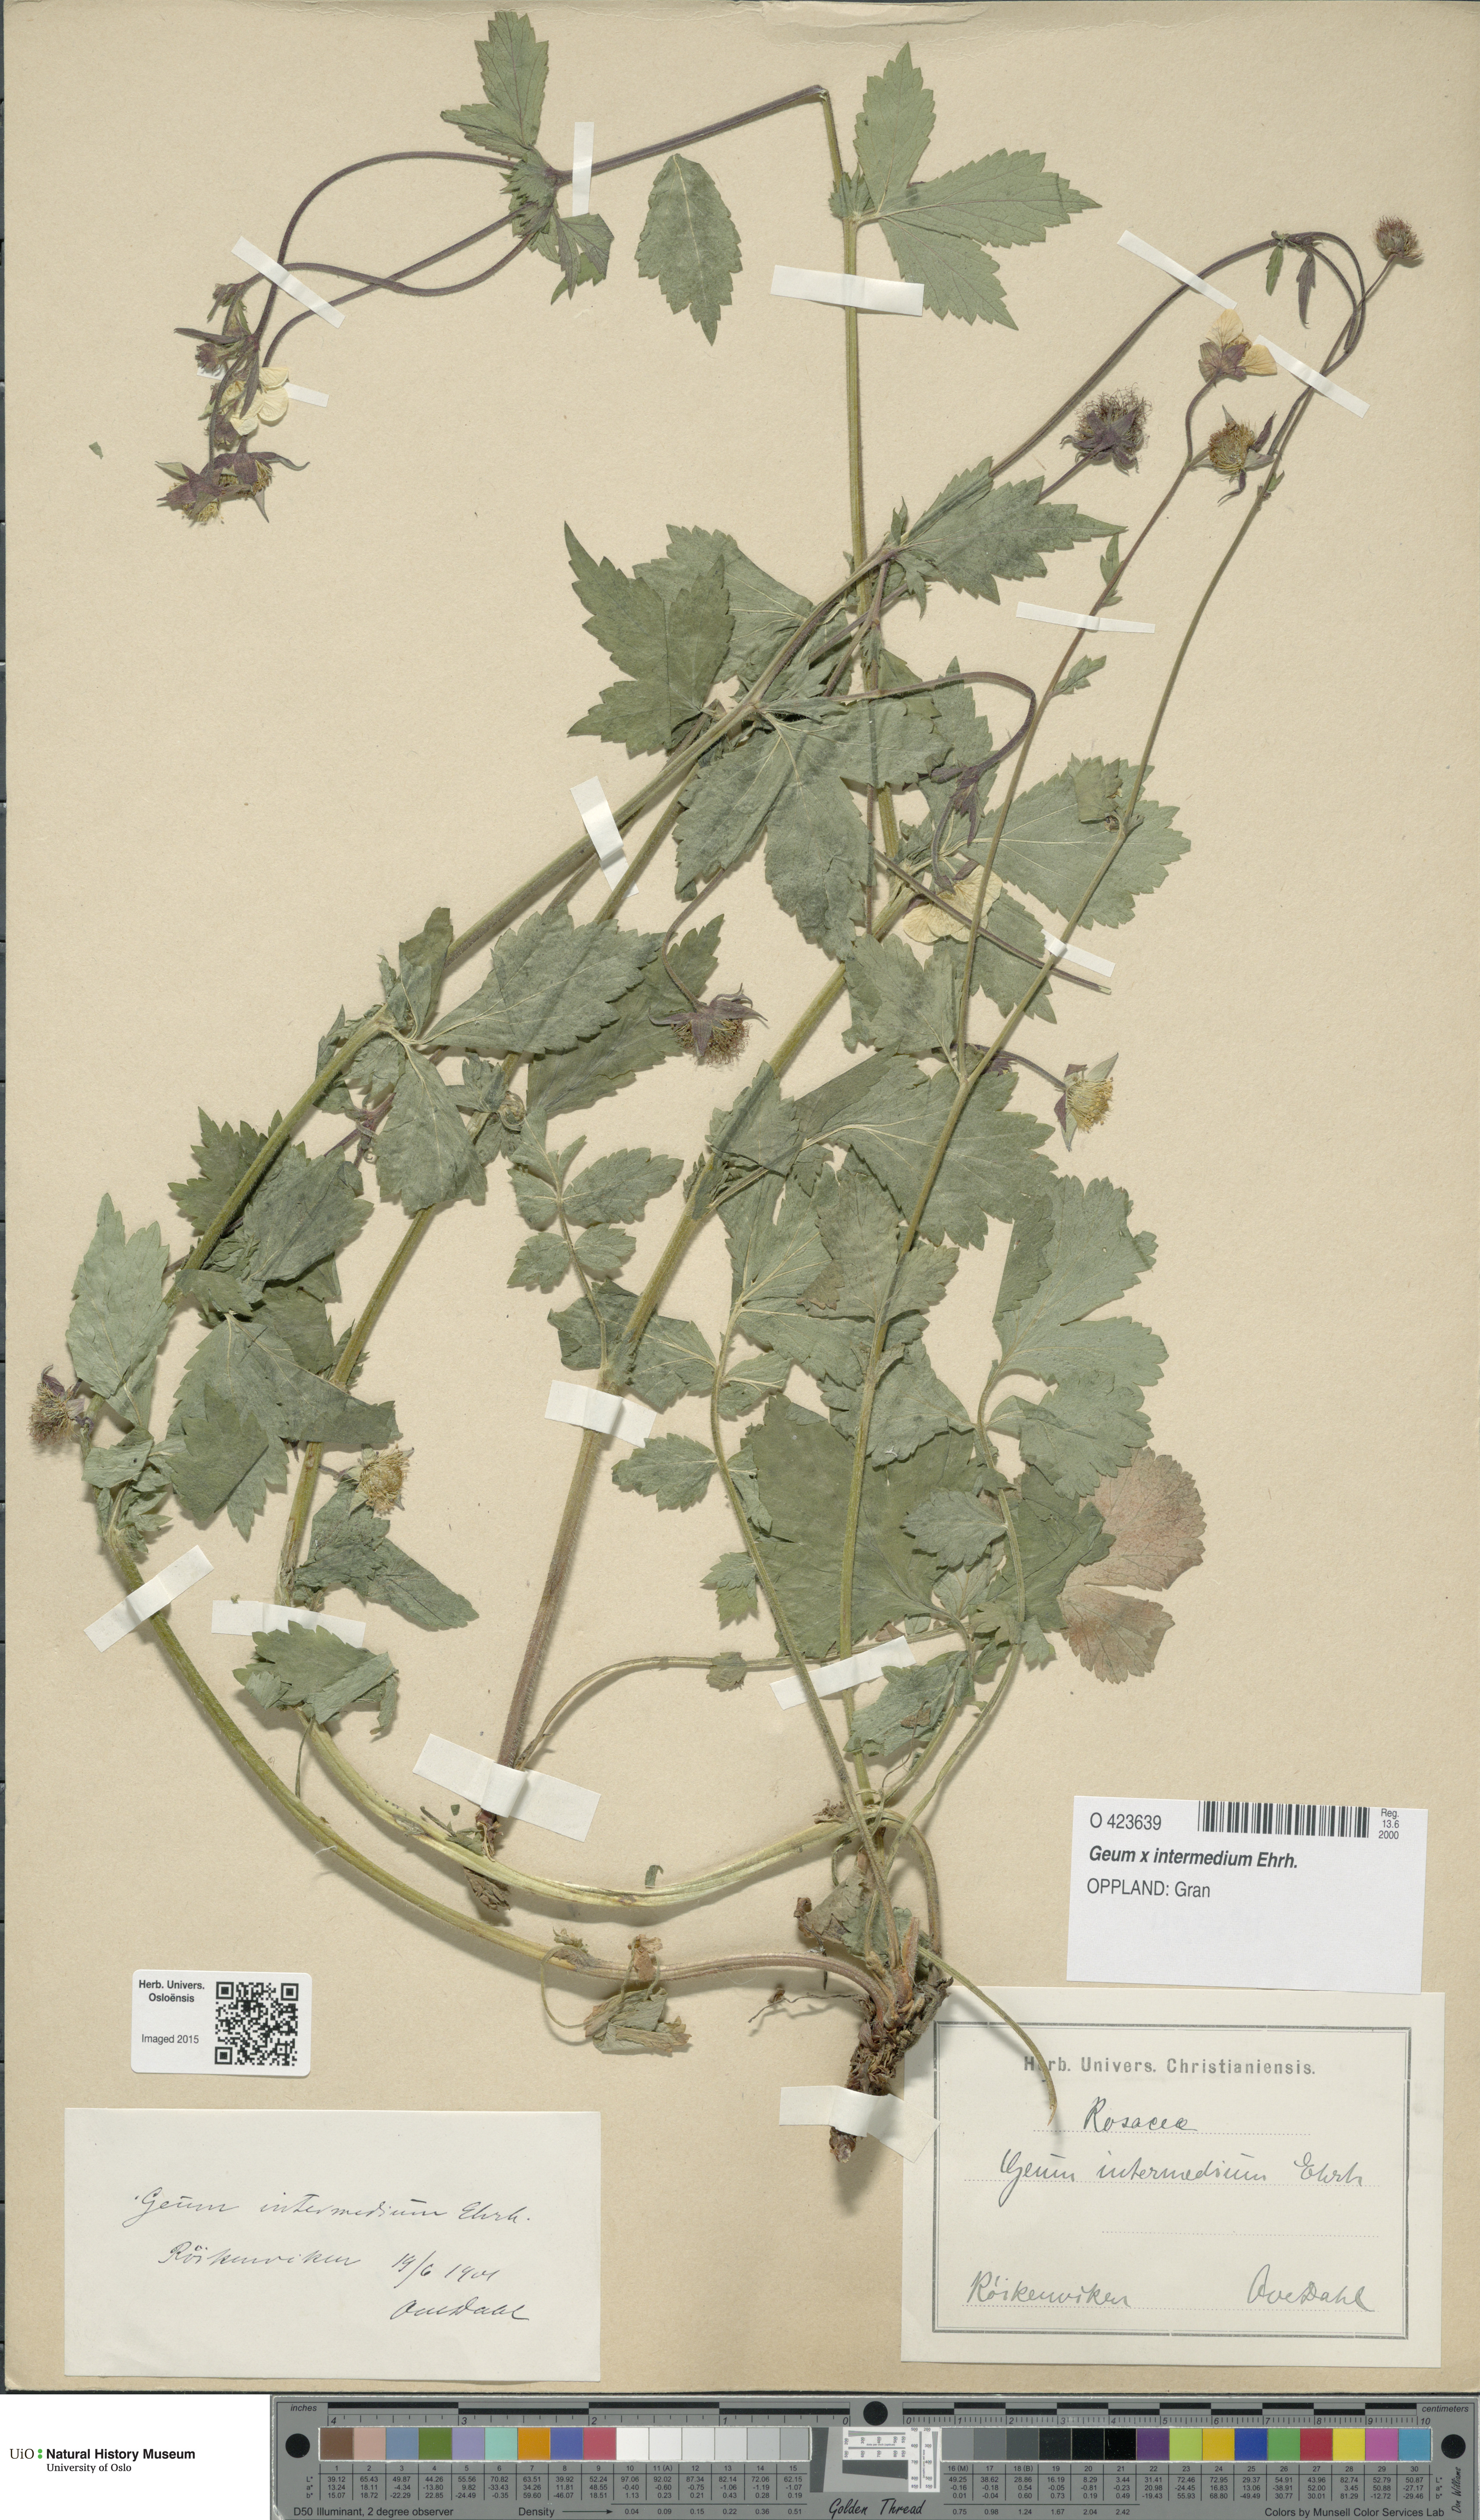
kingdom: Plantae
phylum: Tracheophyta
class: Magnoliopsida
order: Rosales
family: Rosaceae
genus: Geum
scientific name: Geum intermedium
